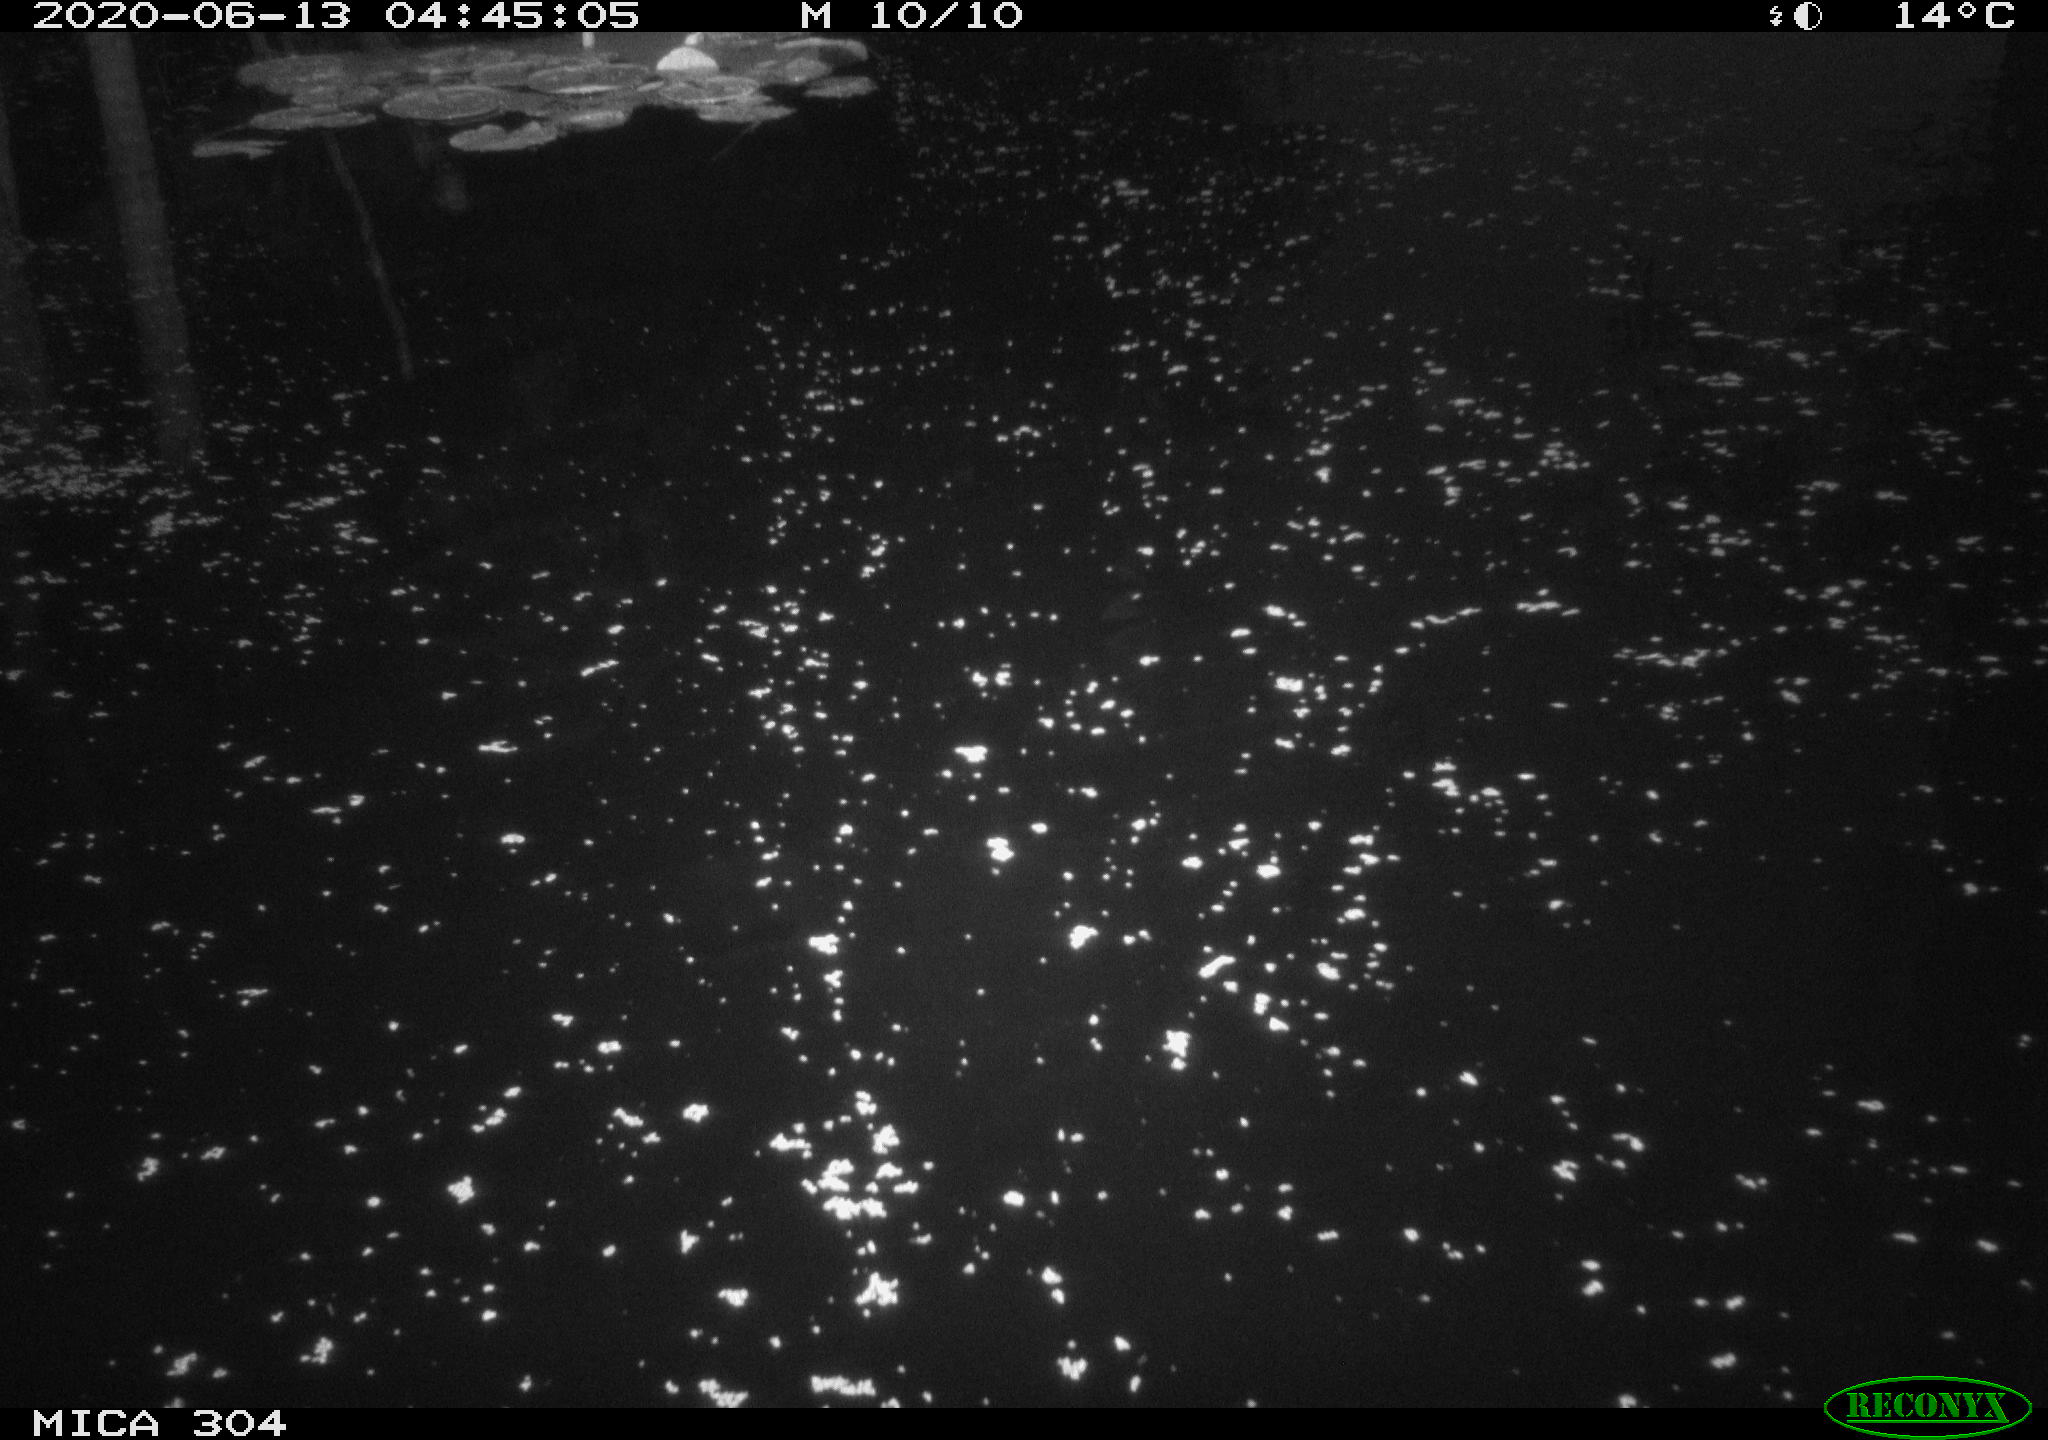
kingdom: Animalia
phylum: Chordata
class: Aves
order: Anseriformes
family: Anatidae
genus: Anas
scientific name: Anas platyrhynchos
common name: Mallard
